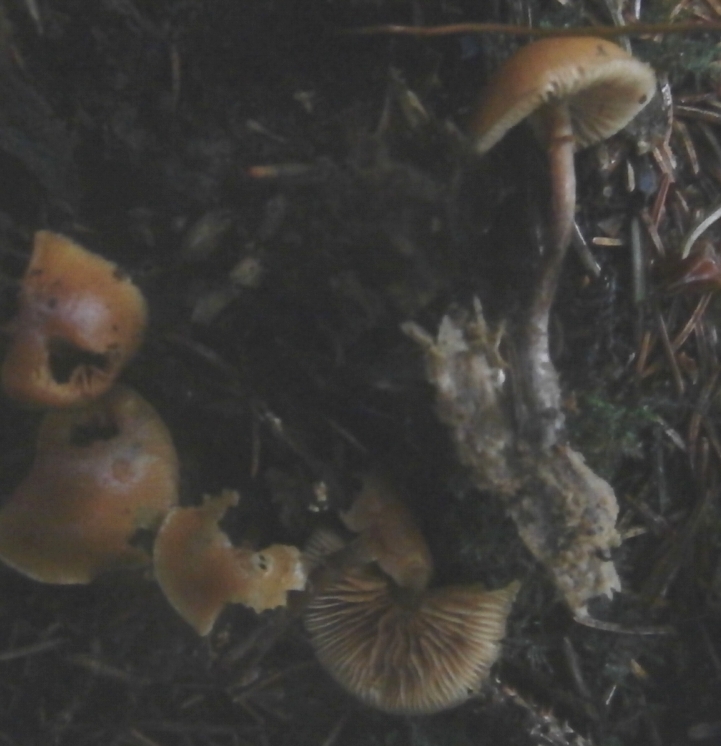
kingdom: Fungi
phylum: Basidiomycota
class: Agaricomycetes
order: Agaricales
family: Hymenogastraceae
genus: Galerina
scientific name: Galerina marginata
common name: randbæltet hjelmhat
